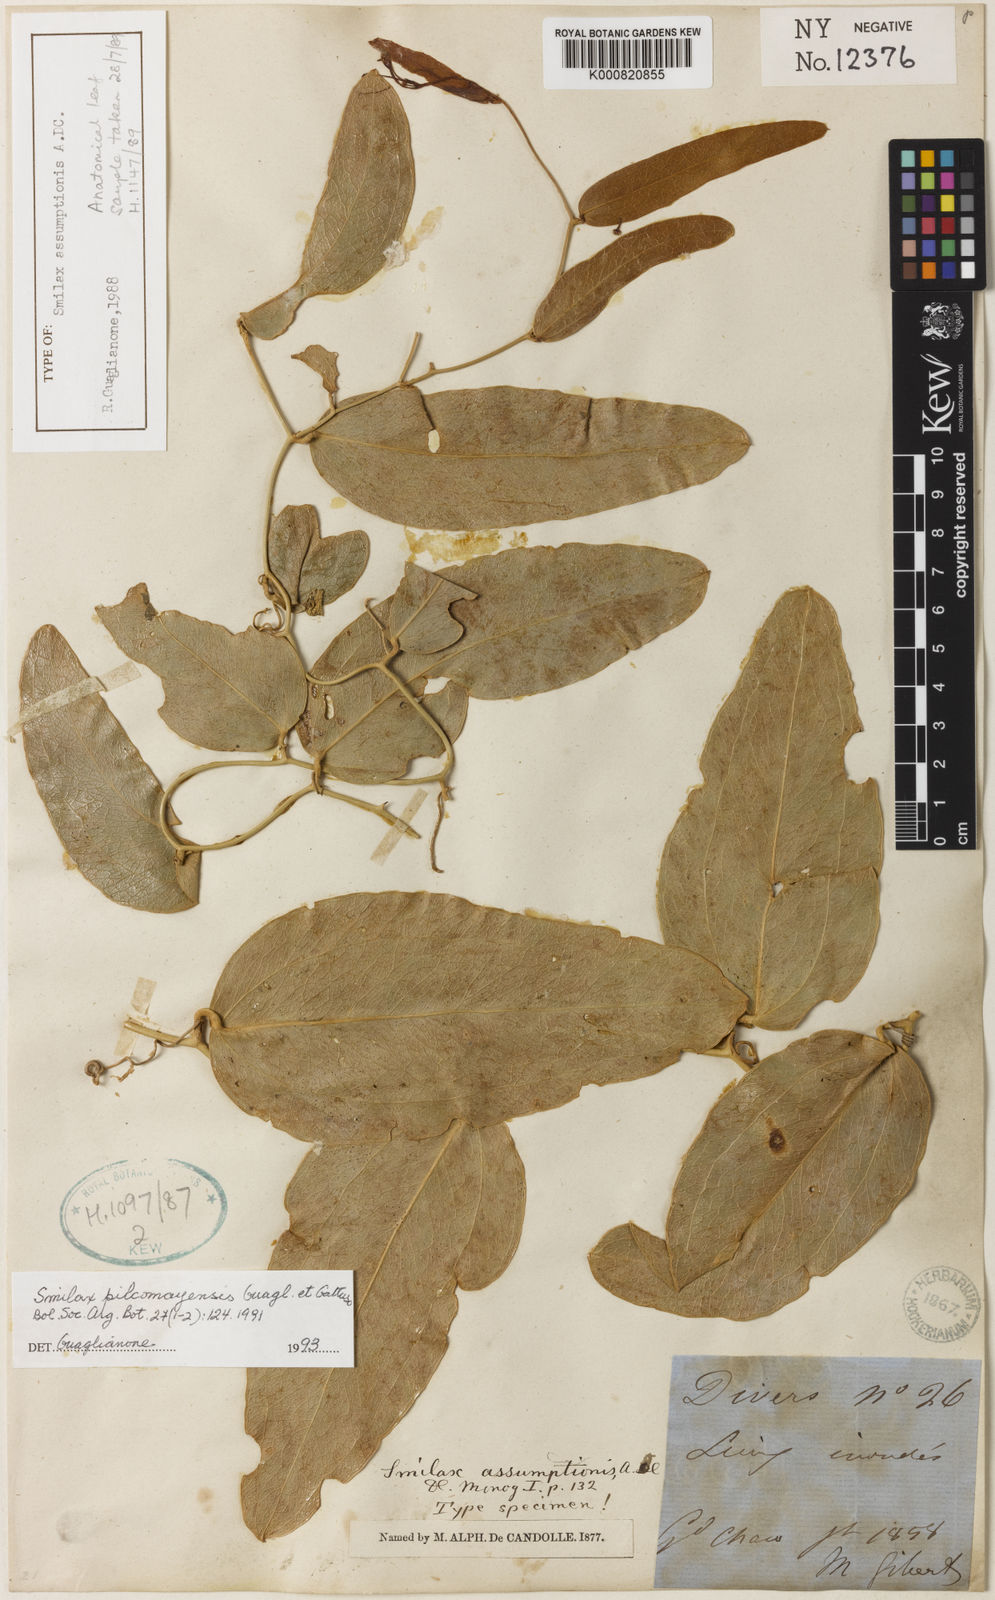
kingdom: Plantae
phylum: Tracheophyta
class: Liliopsida
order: Liliales
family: Smilacaceae
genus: Smilax
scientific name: Smilax pilcomayensis
